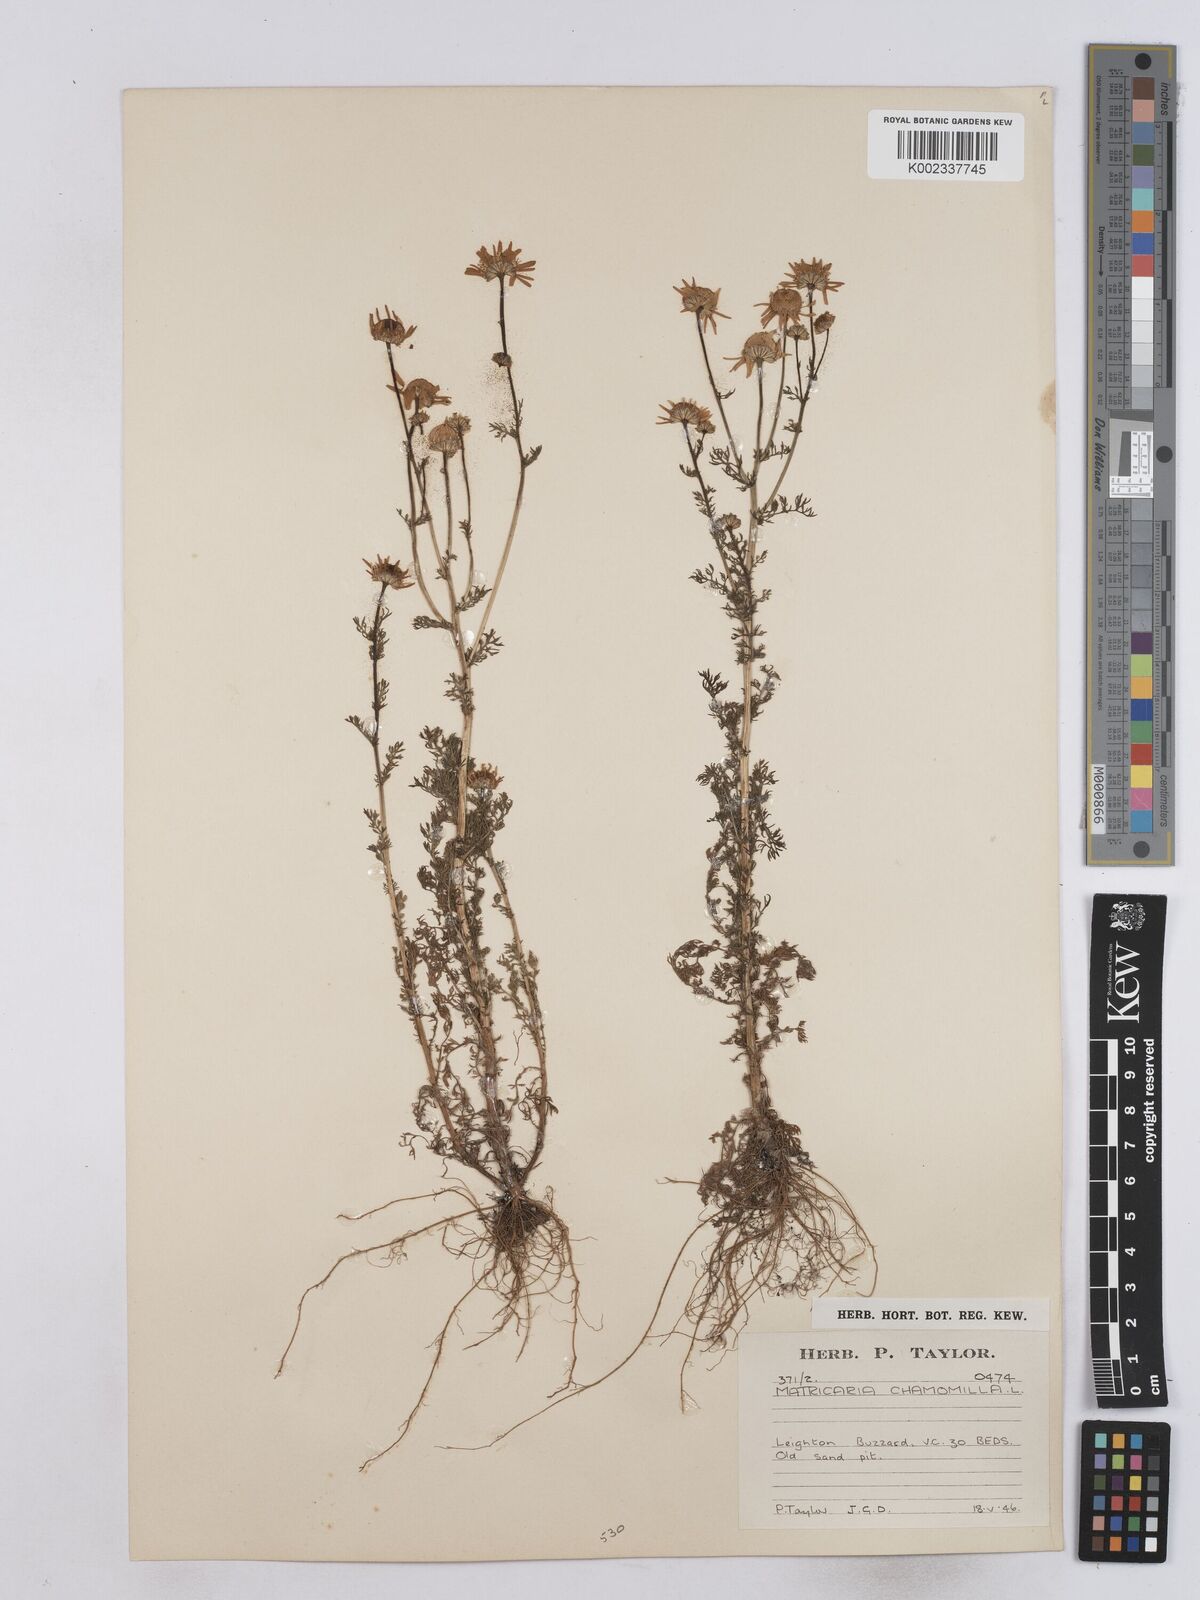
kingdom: Plantae
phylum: Tracheophyta
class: Magnoliopsida
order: Asterales
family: Asteraceae
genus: Matricaria
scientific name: Matricaria chamomilla
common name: Scented mayweed
